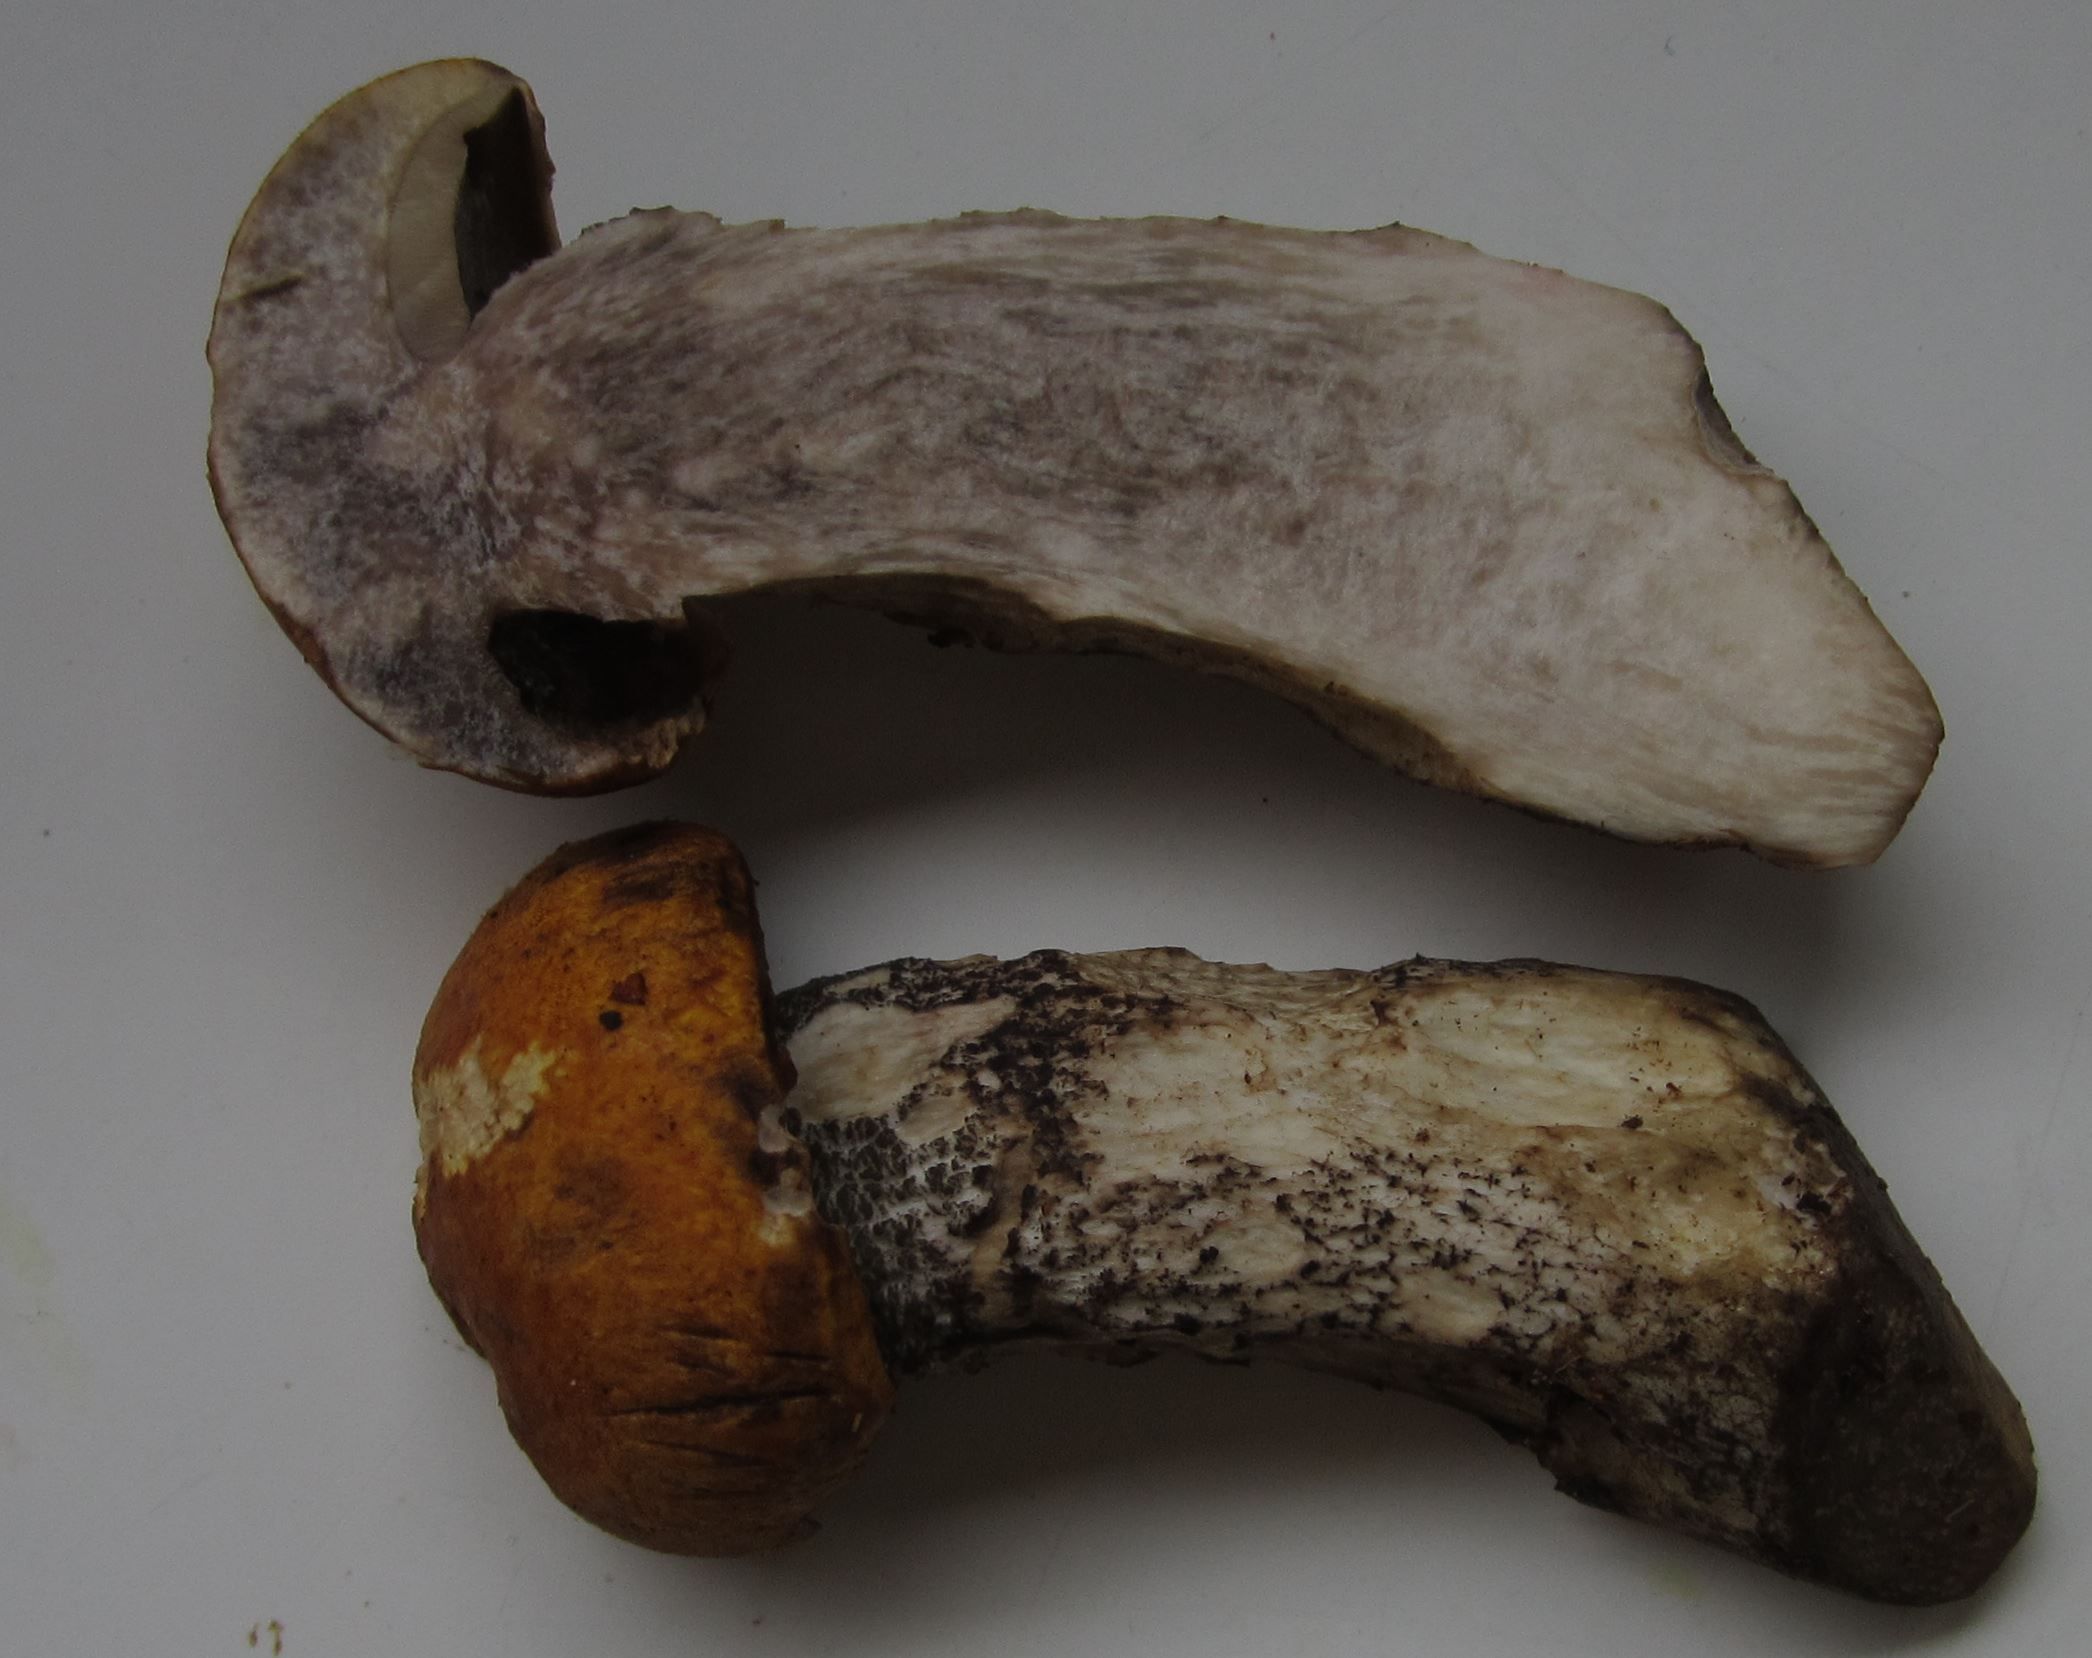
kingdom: Fungi
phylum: Basidiomycota
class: Agaricomycetes
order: Boletales
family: Boletaceae
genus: Leccinum
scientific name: Leccinum versipelle
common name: orange skælrørhat
